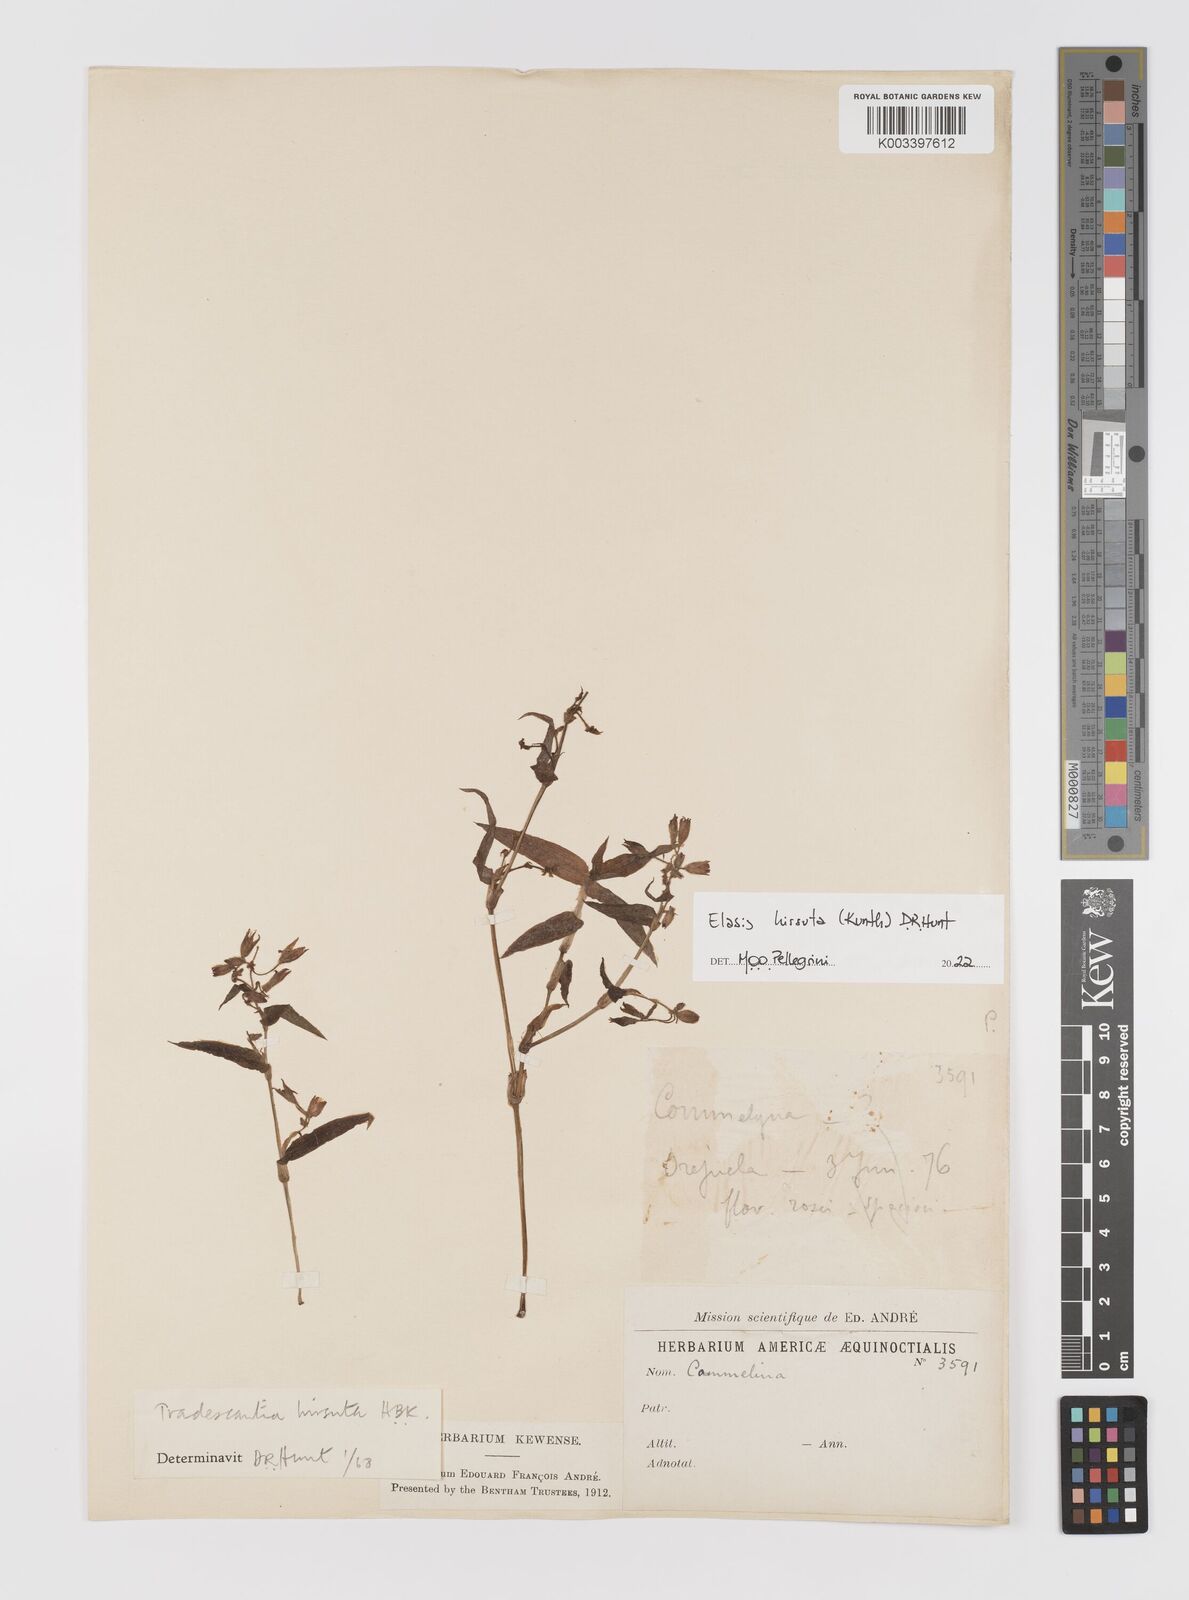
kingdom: Plantae
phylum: Tracheophyta
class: Liliopsida
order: Commelinales
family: Commelinaceae
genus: Elasis
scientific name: Elasis hirsuta
